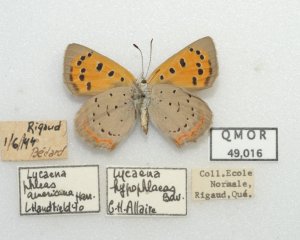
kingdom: Animalia
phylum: Arthropoda
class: Insecta
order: Lepidoptera
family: Lycaenidae
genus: Lycaena
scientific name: Lycaena phlaeas
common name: American Copper
